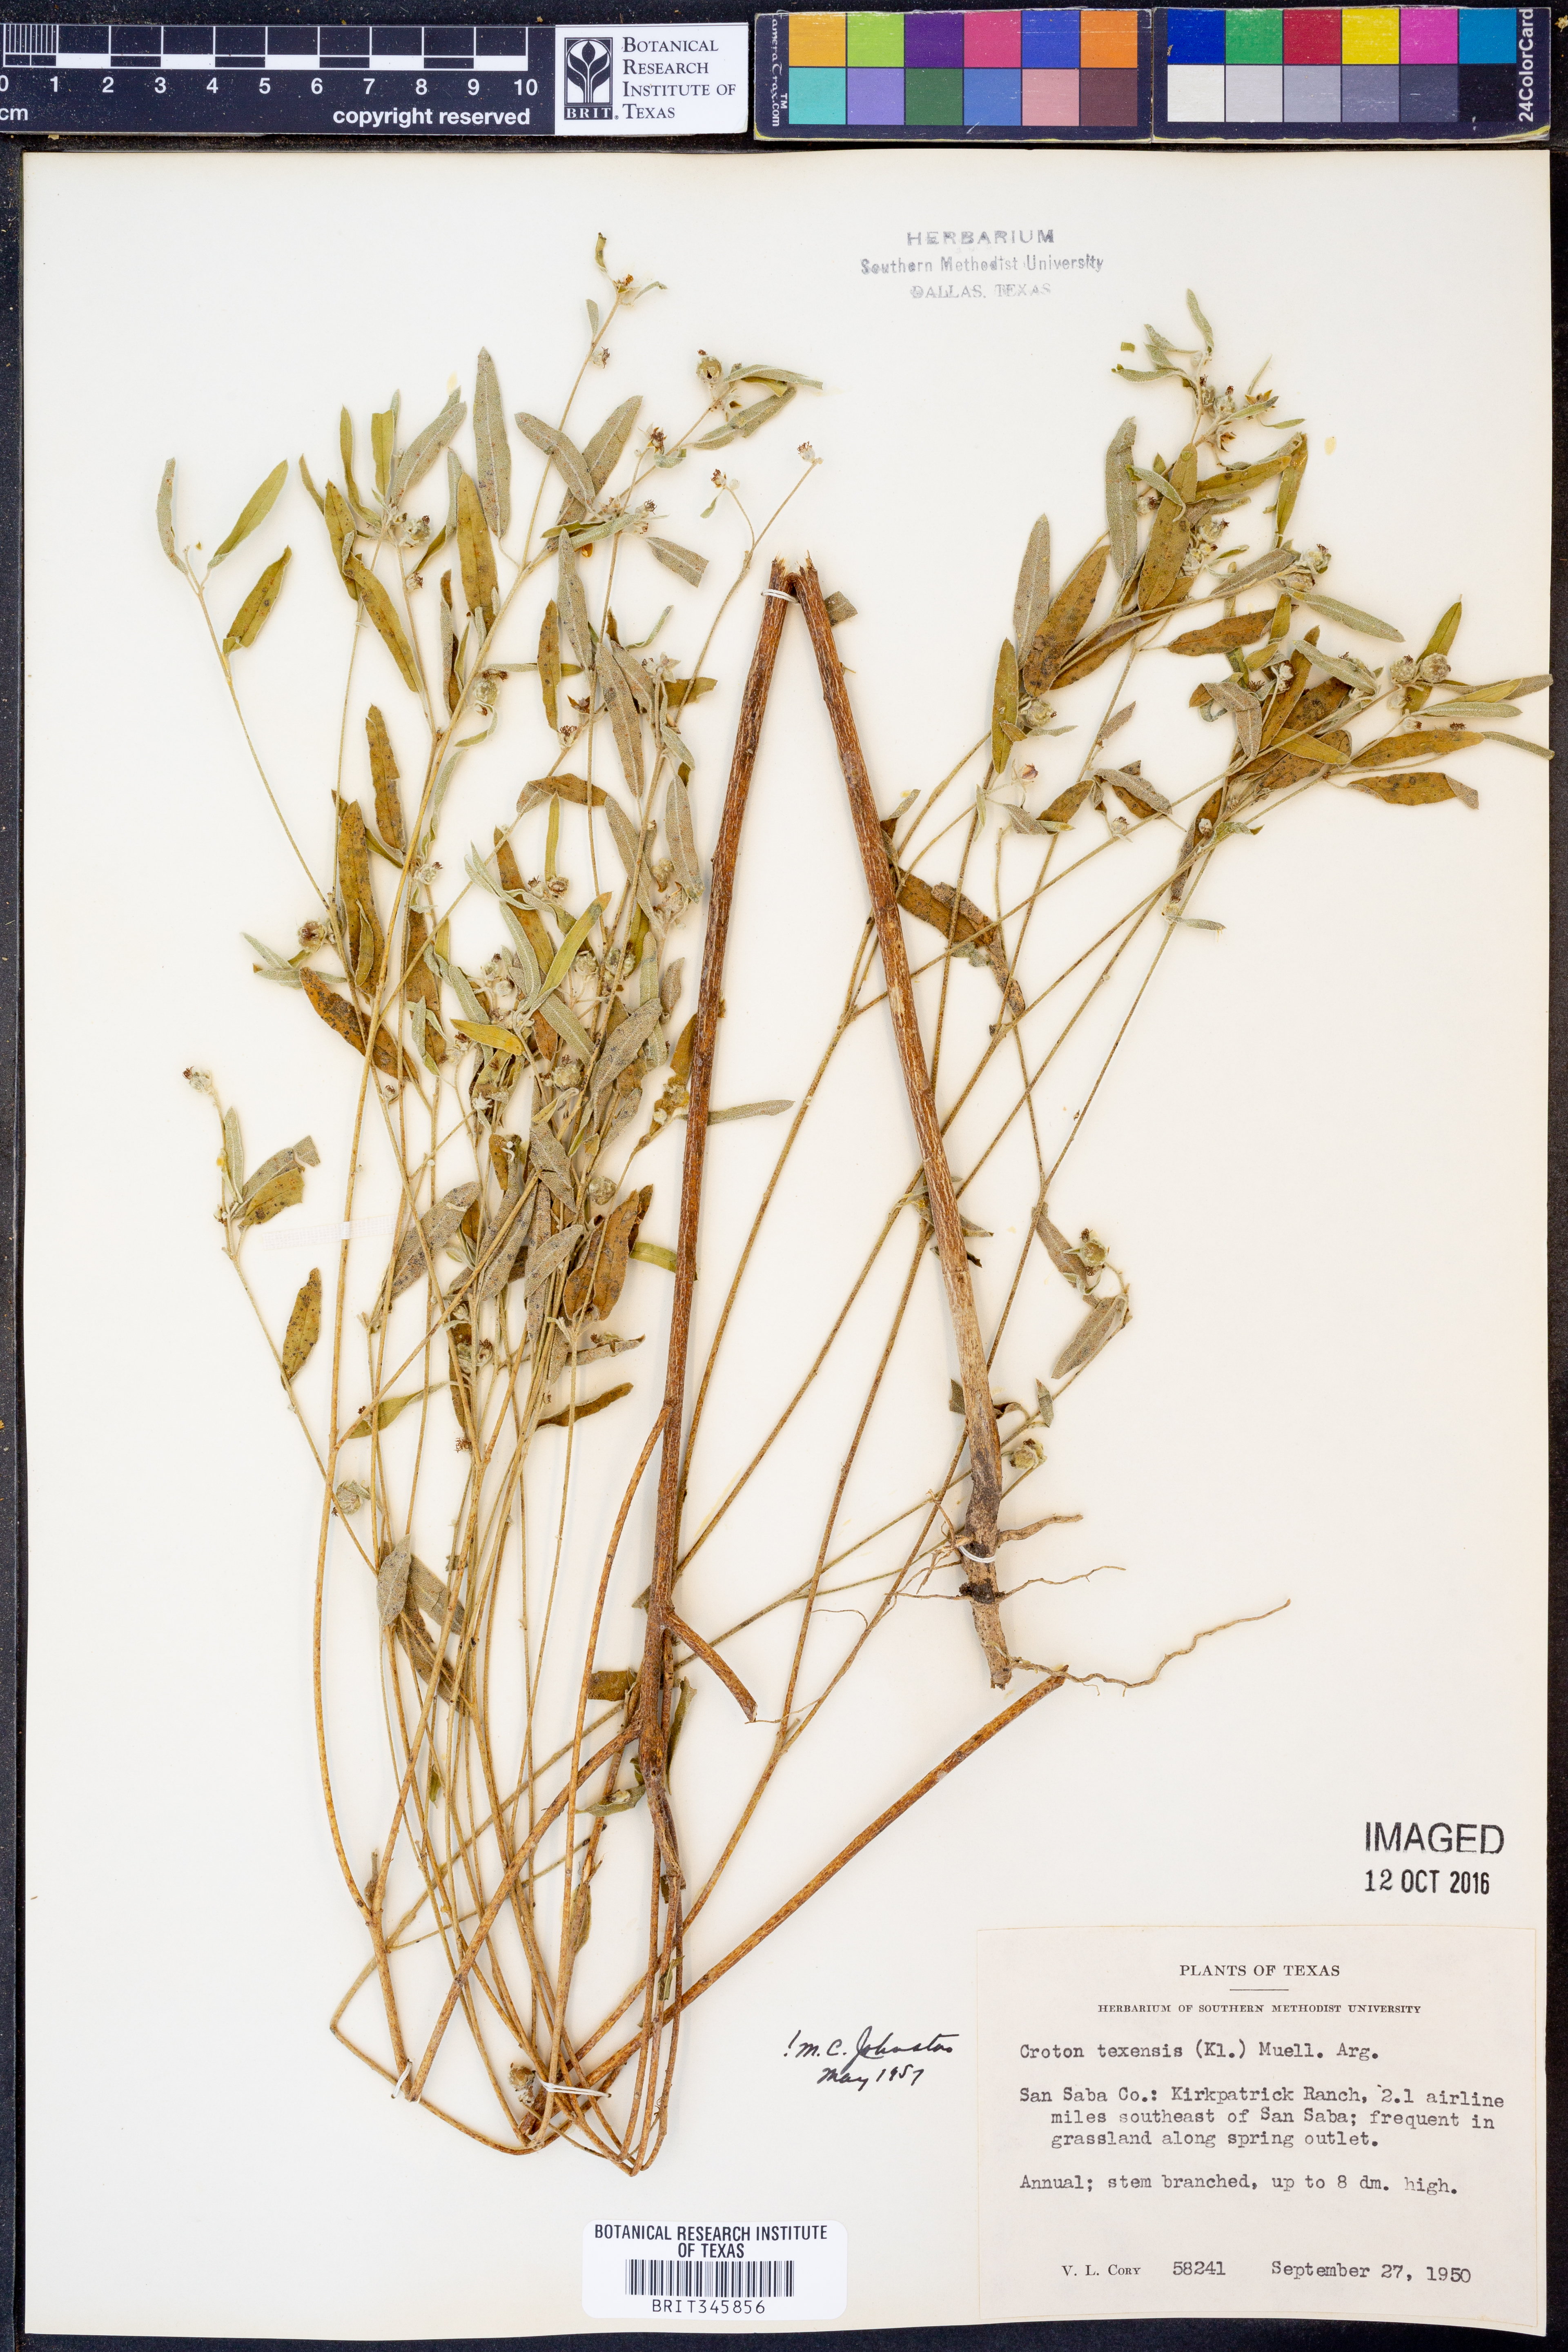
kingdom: Plantae
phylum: Tracheophyta
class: Magnoliopsida
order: Malpighiales
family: Euphorbiaceae
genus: Croton
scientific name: Croton texensis
